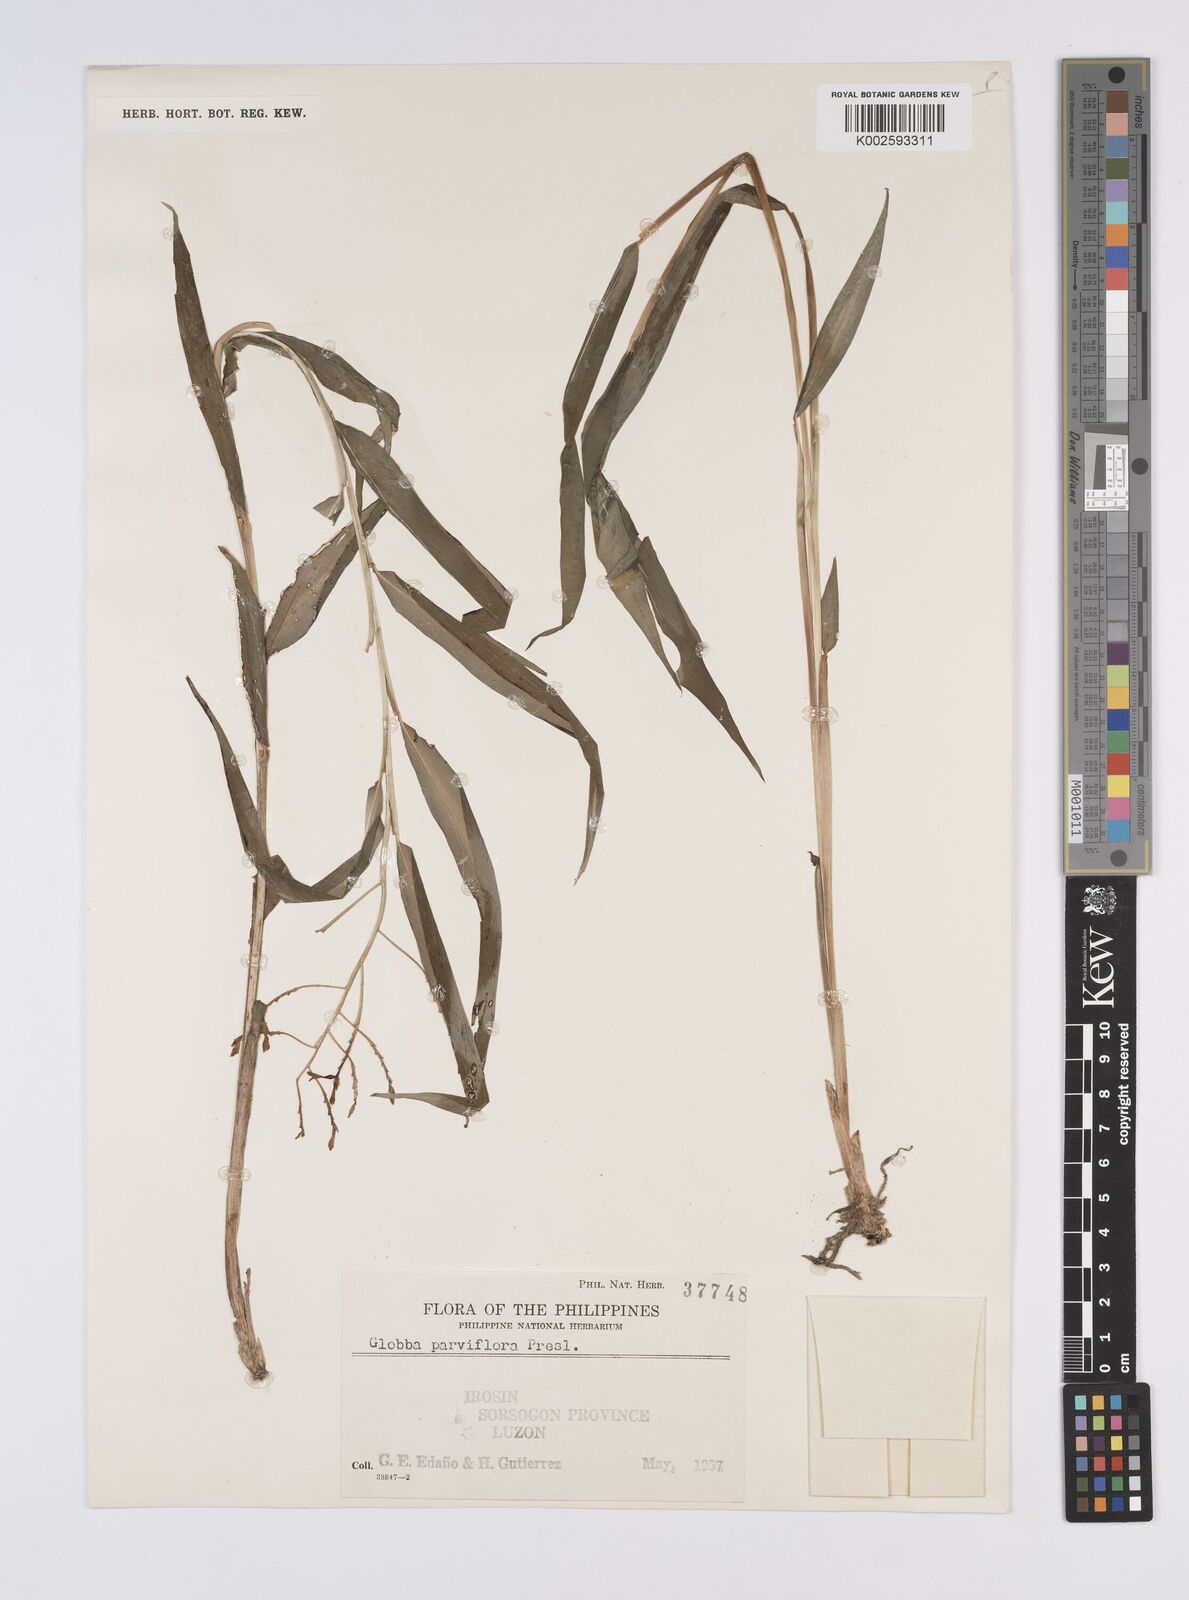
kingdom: Plantae
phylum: Tracheophyta
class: Liliopsida
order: Zingiberales
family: Zingiberaceae
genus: Globba
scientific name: Globba parviflora
